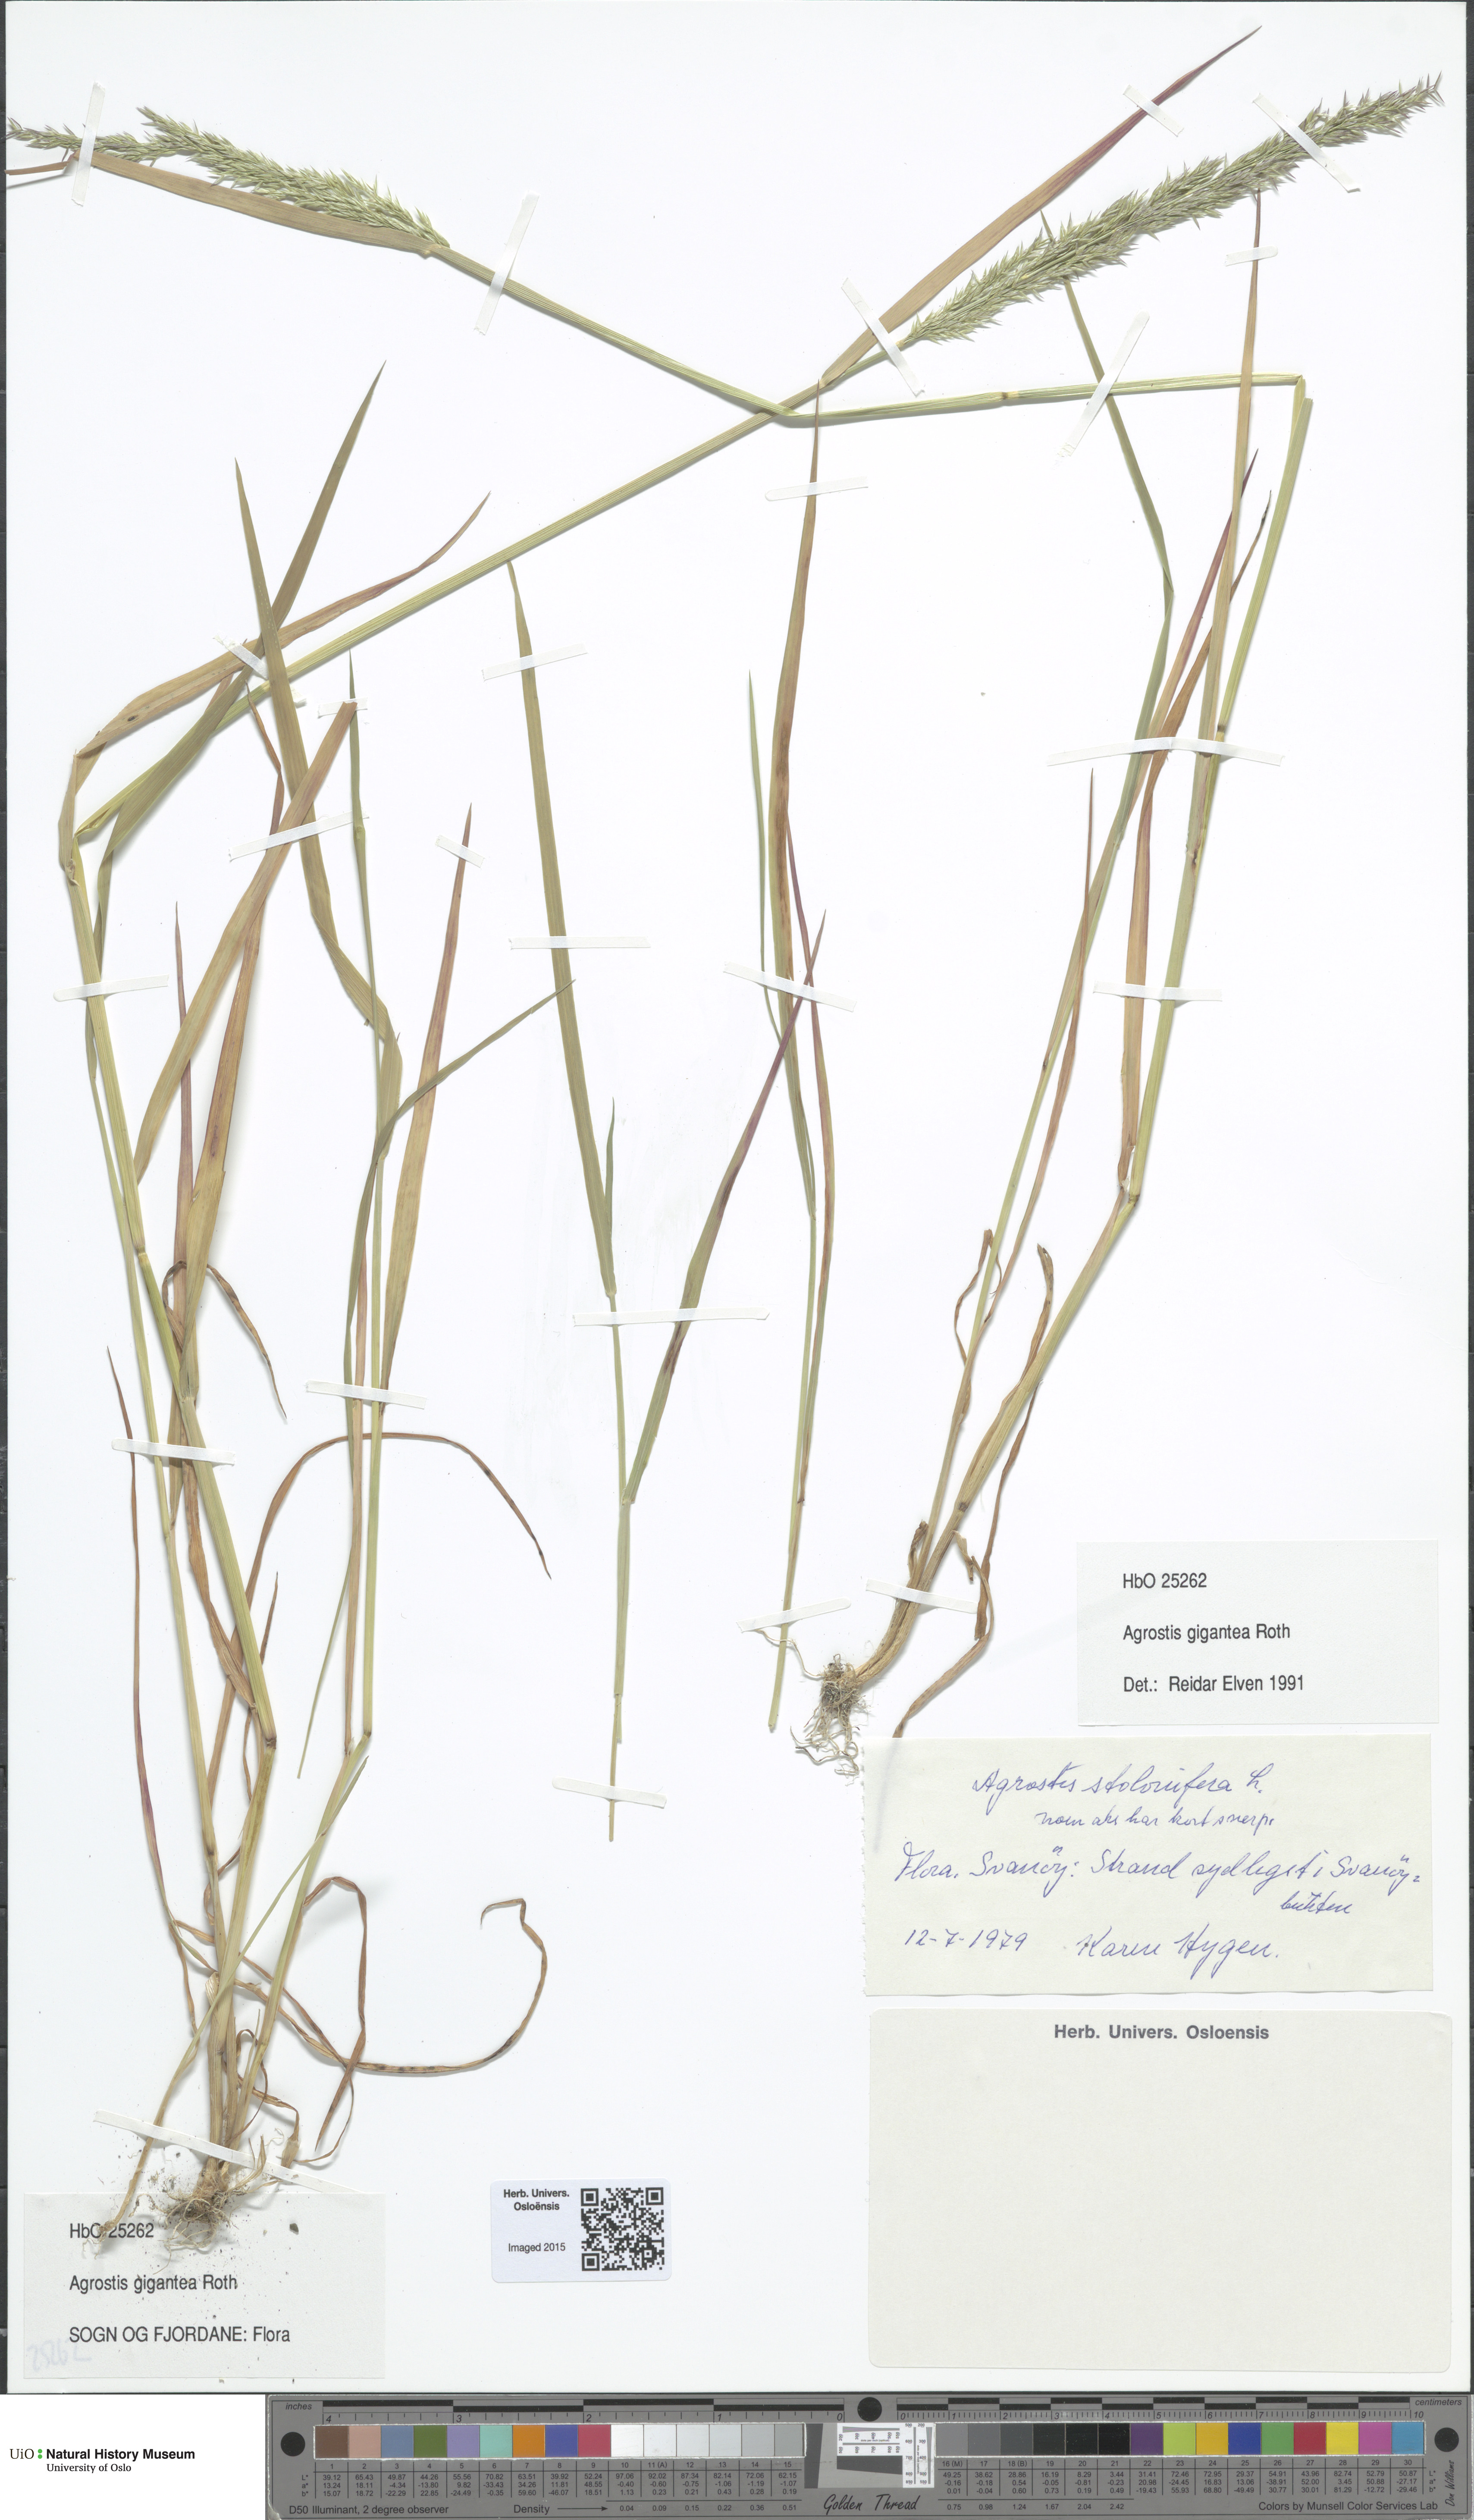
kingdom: Plantae
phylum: Tracheophyta
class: Liliopsida
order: Poales
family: Poaceae
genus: Agrostis
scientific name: Agrostis gigantea
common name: Black bent
